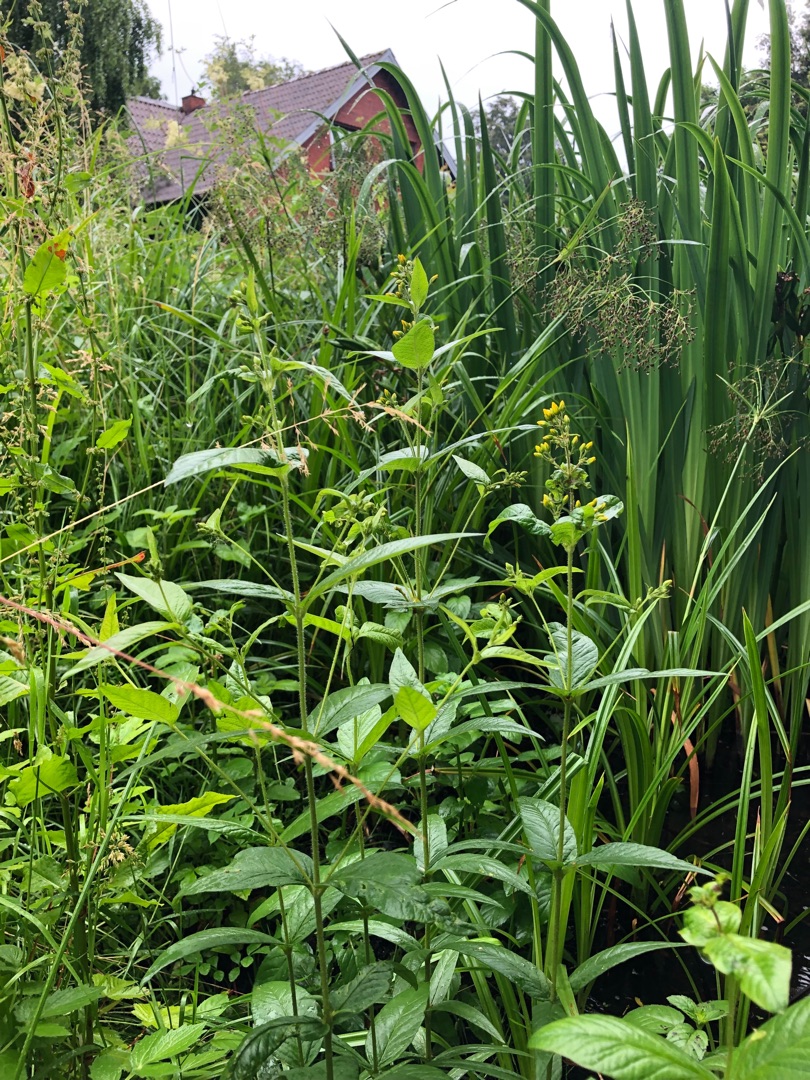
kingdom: Plantae
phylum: Tracheophyta
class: Magnoliopsida
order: Ericales
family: Primulaceae
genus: Lysimachia
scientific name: Lysimachia vulgaris
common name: Almindelig fredløs
